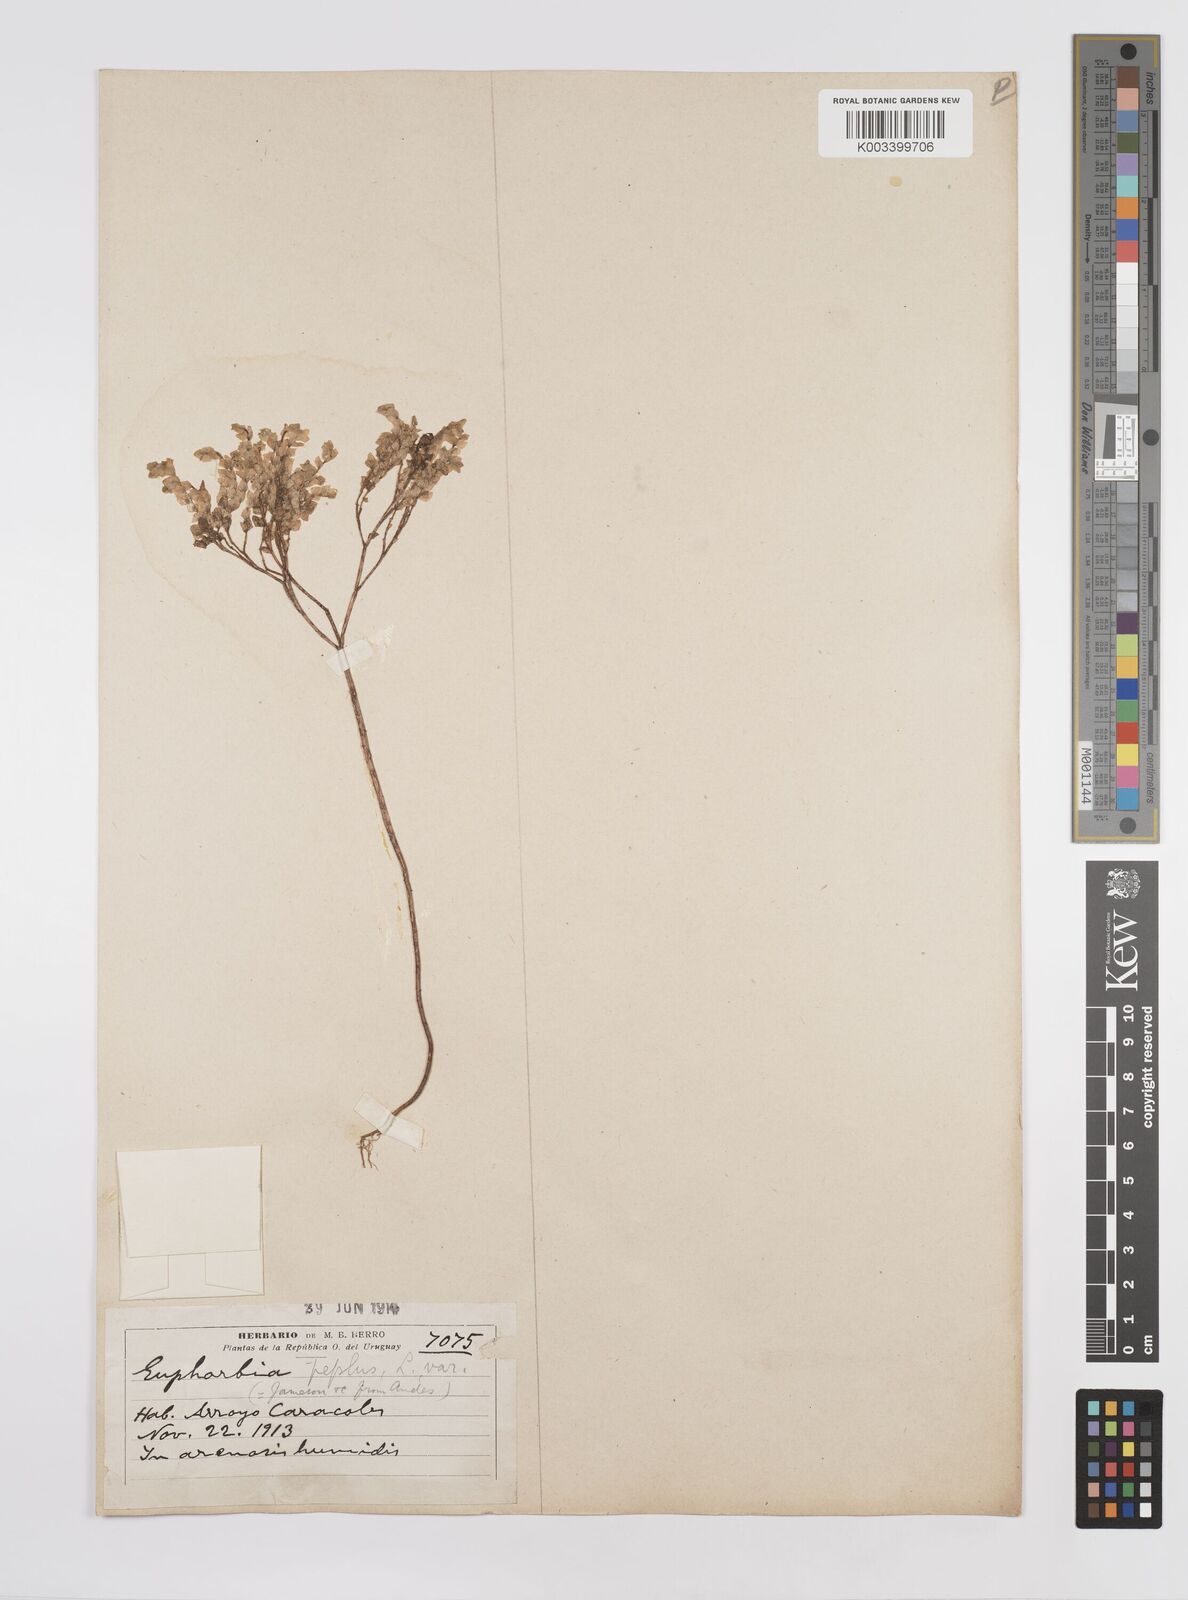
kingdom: Plantae
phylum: Tracheophyta
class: Magnoliopsida
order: Malpighiales
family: Euphorbiaceae
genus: Euphorbia
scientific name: Euphorbia peplus
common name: Petty spurge
